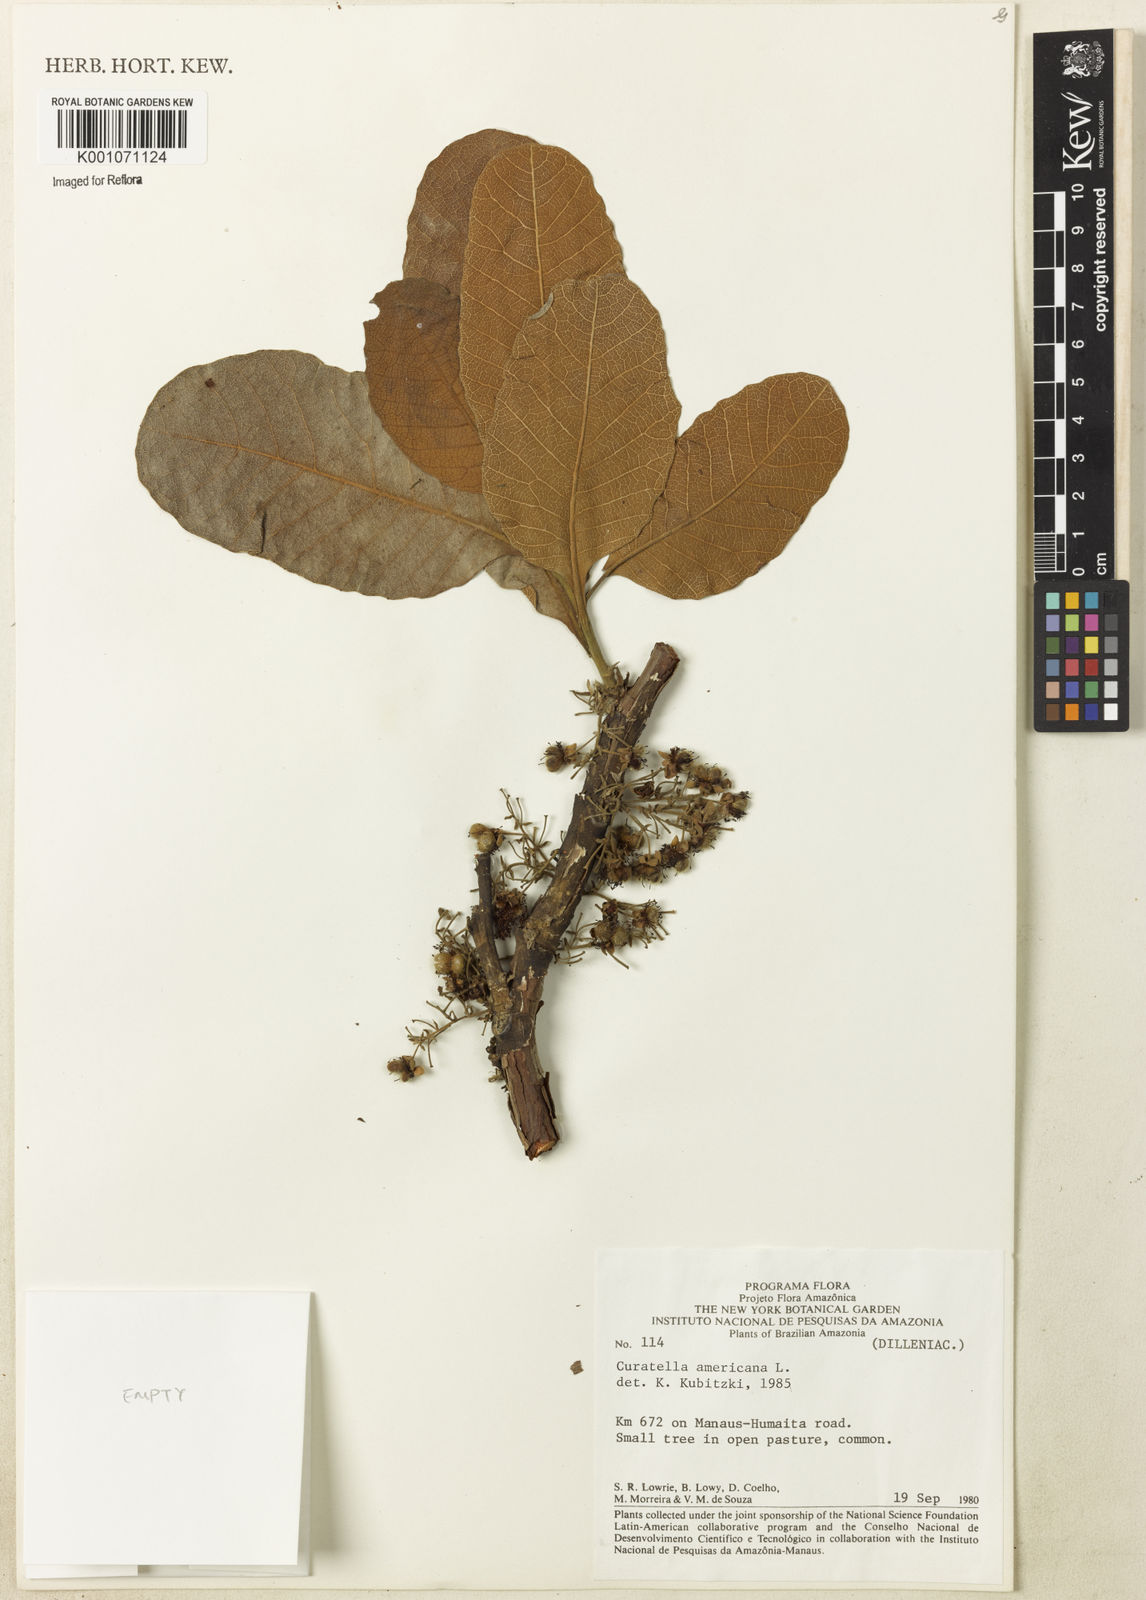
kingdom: Plantae
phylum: Tracheophyta
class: Magnoliopsida
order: Dilleniales
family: Dilleniaceae
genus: Curatella
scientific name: Curatella americana
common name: Sandpaper tree
